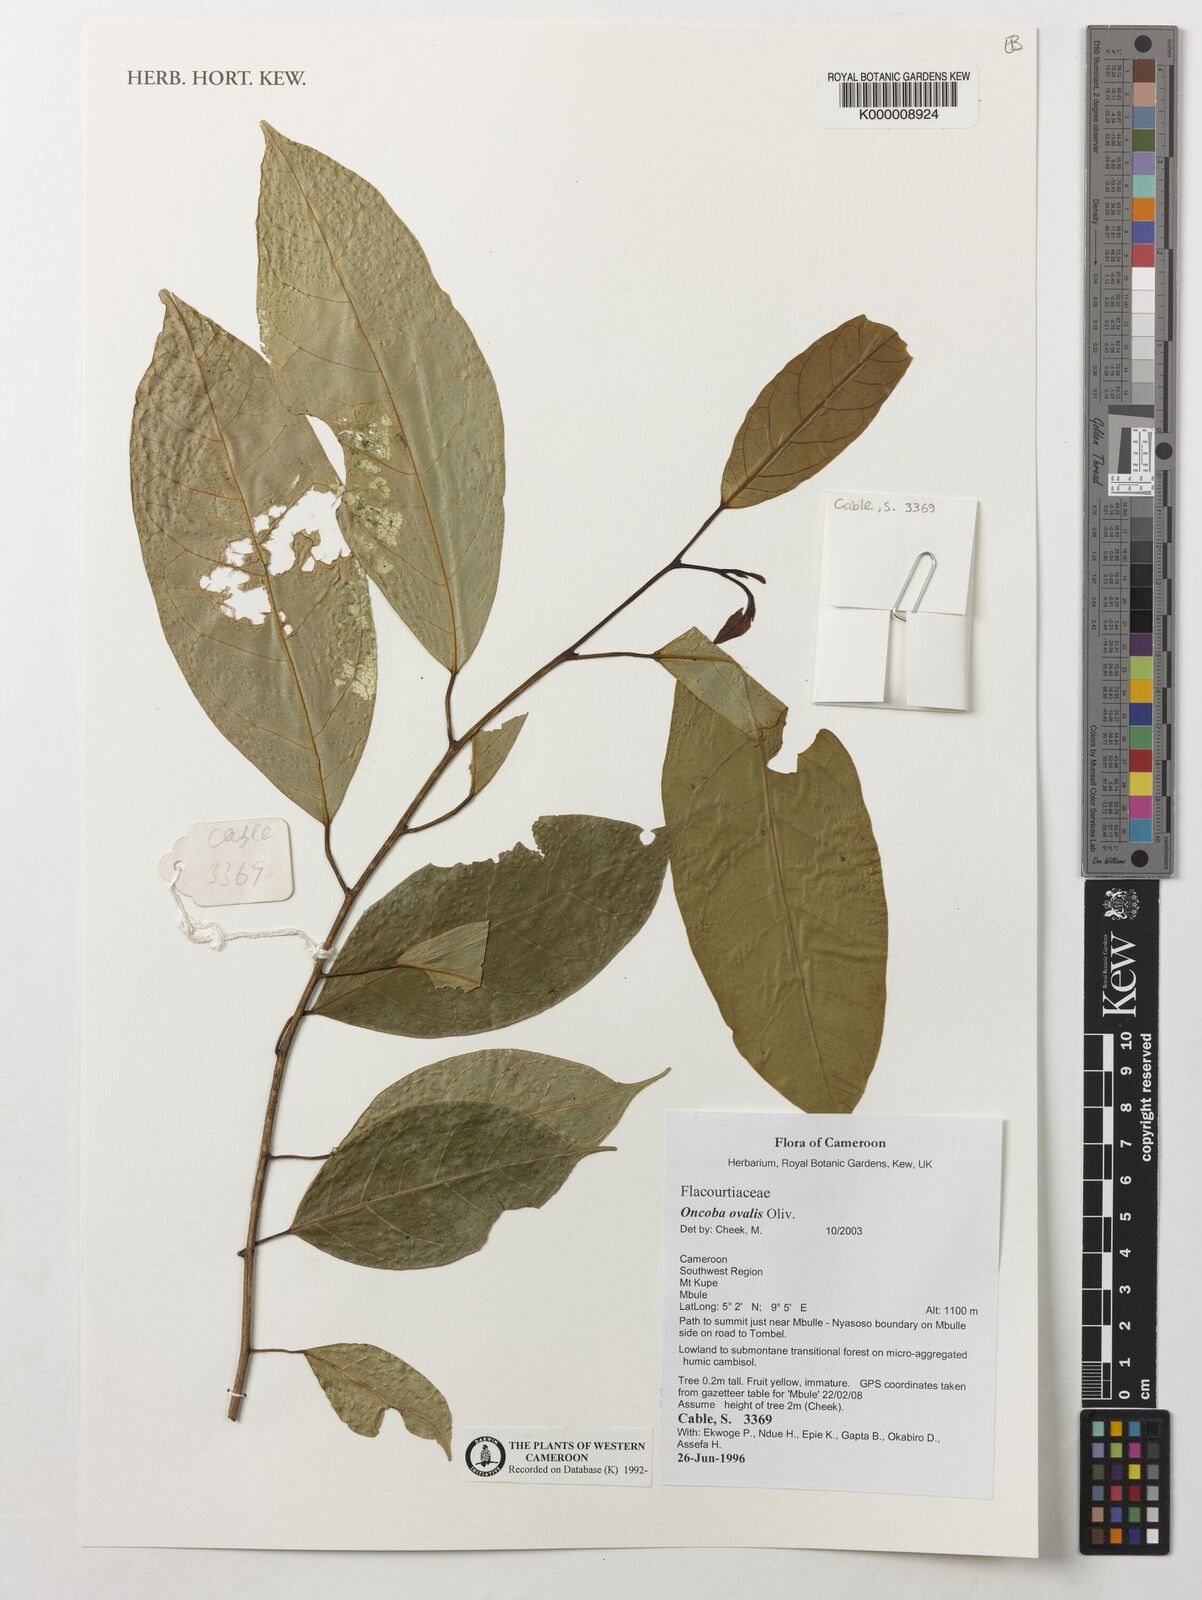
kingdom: Plantae
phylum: Tracheophyta
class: Magnoliopsida
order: Malpighiales
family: Achariaceae
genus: Camptostylus
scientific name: Camptostylus ovalis
